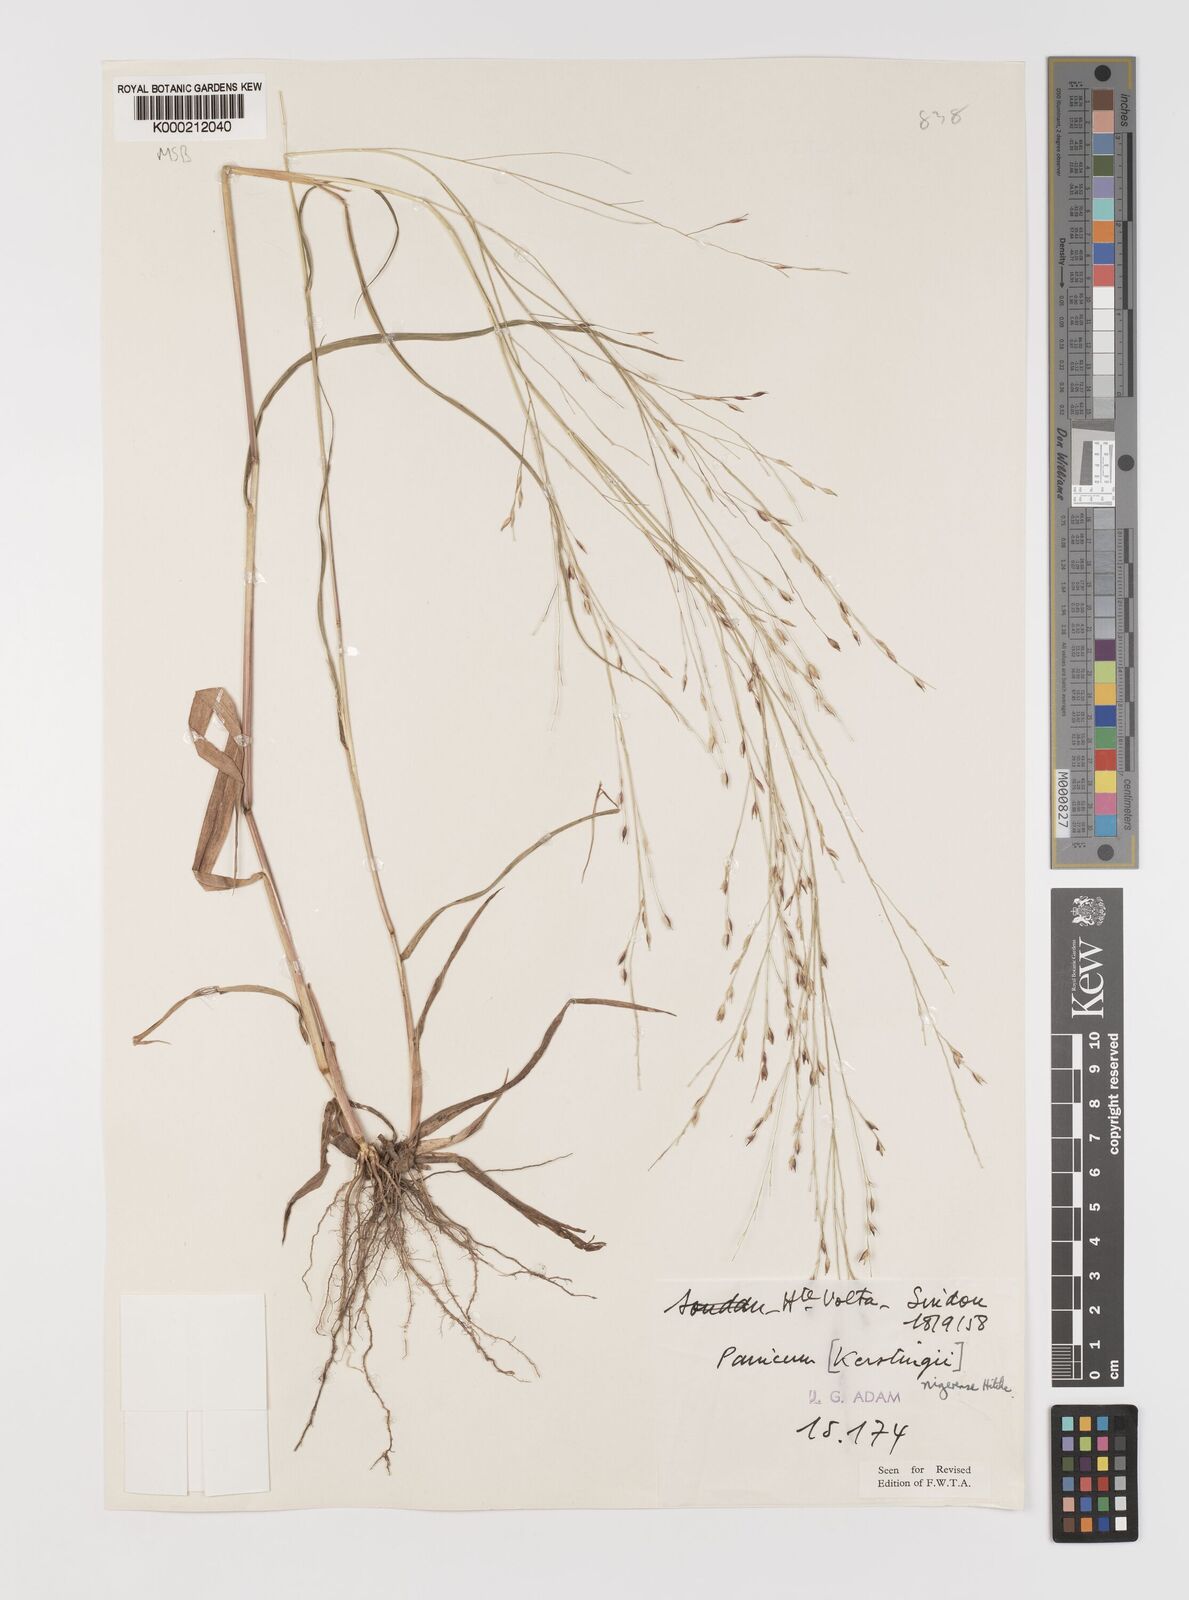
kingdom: Plantae
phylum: Tracheophyta
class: Liliopsida
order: Poales
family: Poaceae
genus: Panicum
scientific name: Panicum nigerense
